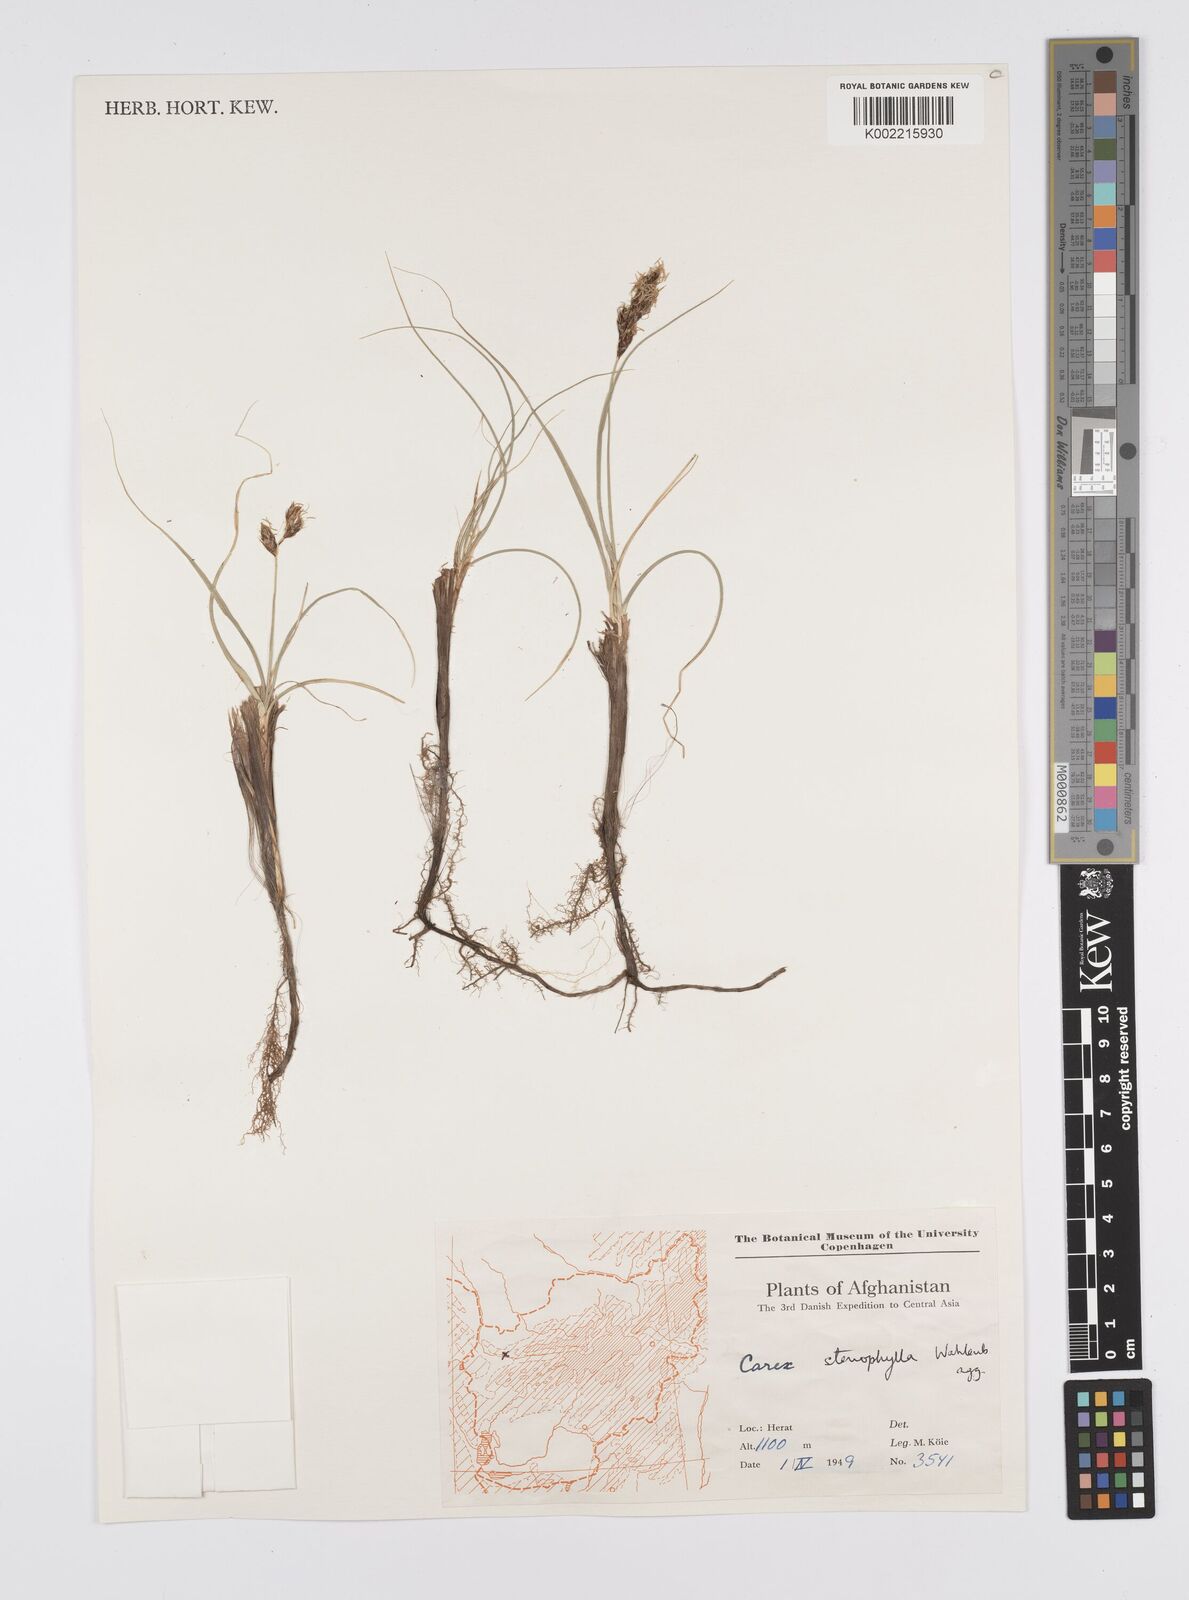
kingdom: Plantae
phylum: Tracheophyta
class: Liliopsida
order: Poales
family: Cyperaceae
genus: Carex
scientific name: Carex stenophylla
